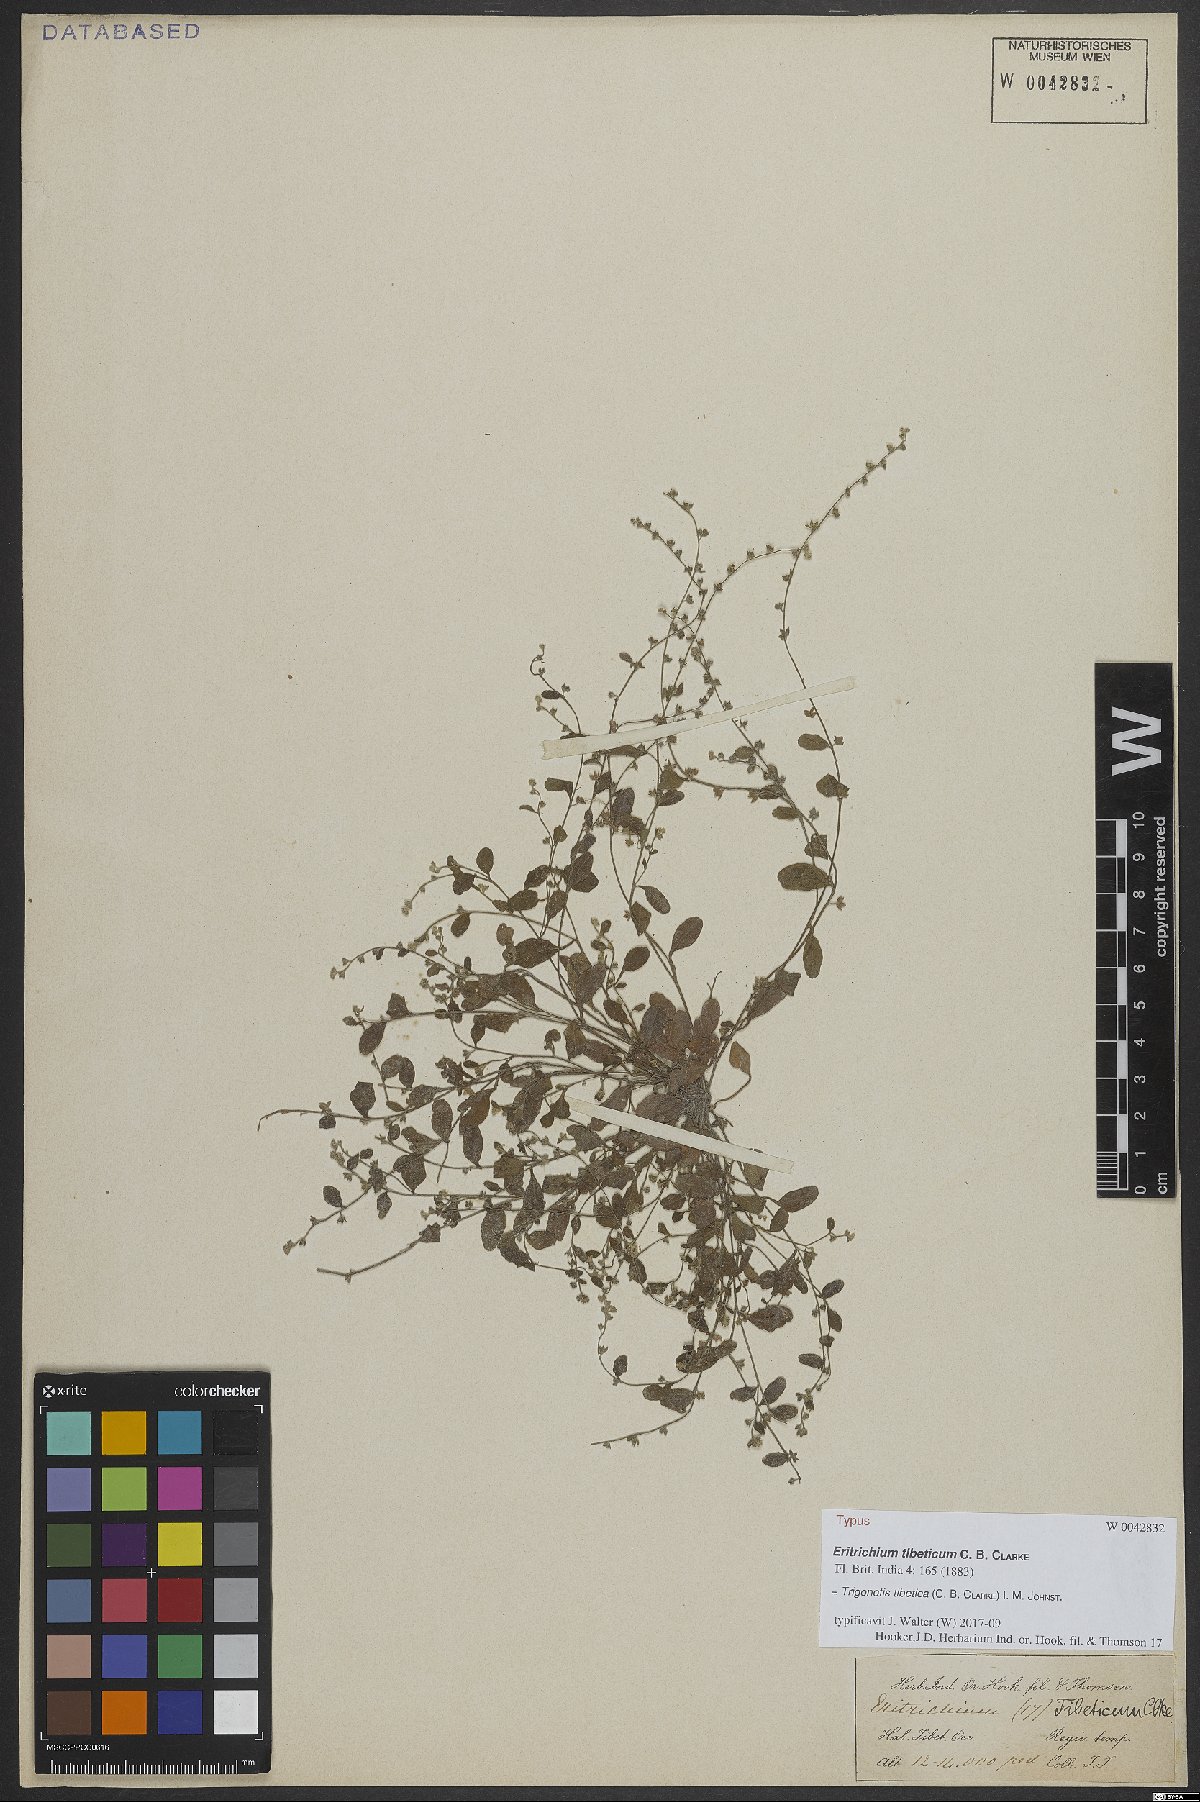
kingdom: Plantae
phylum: Tracheophyta
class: Magnoliopsida
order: Boraginales
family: Boraginaceae
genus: Trigonotis
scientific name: Trigonotis tibetica
